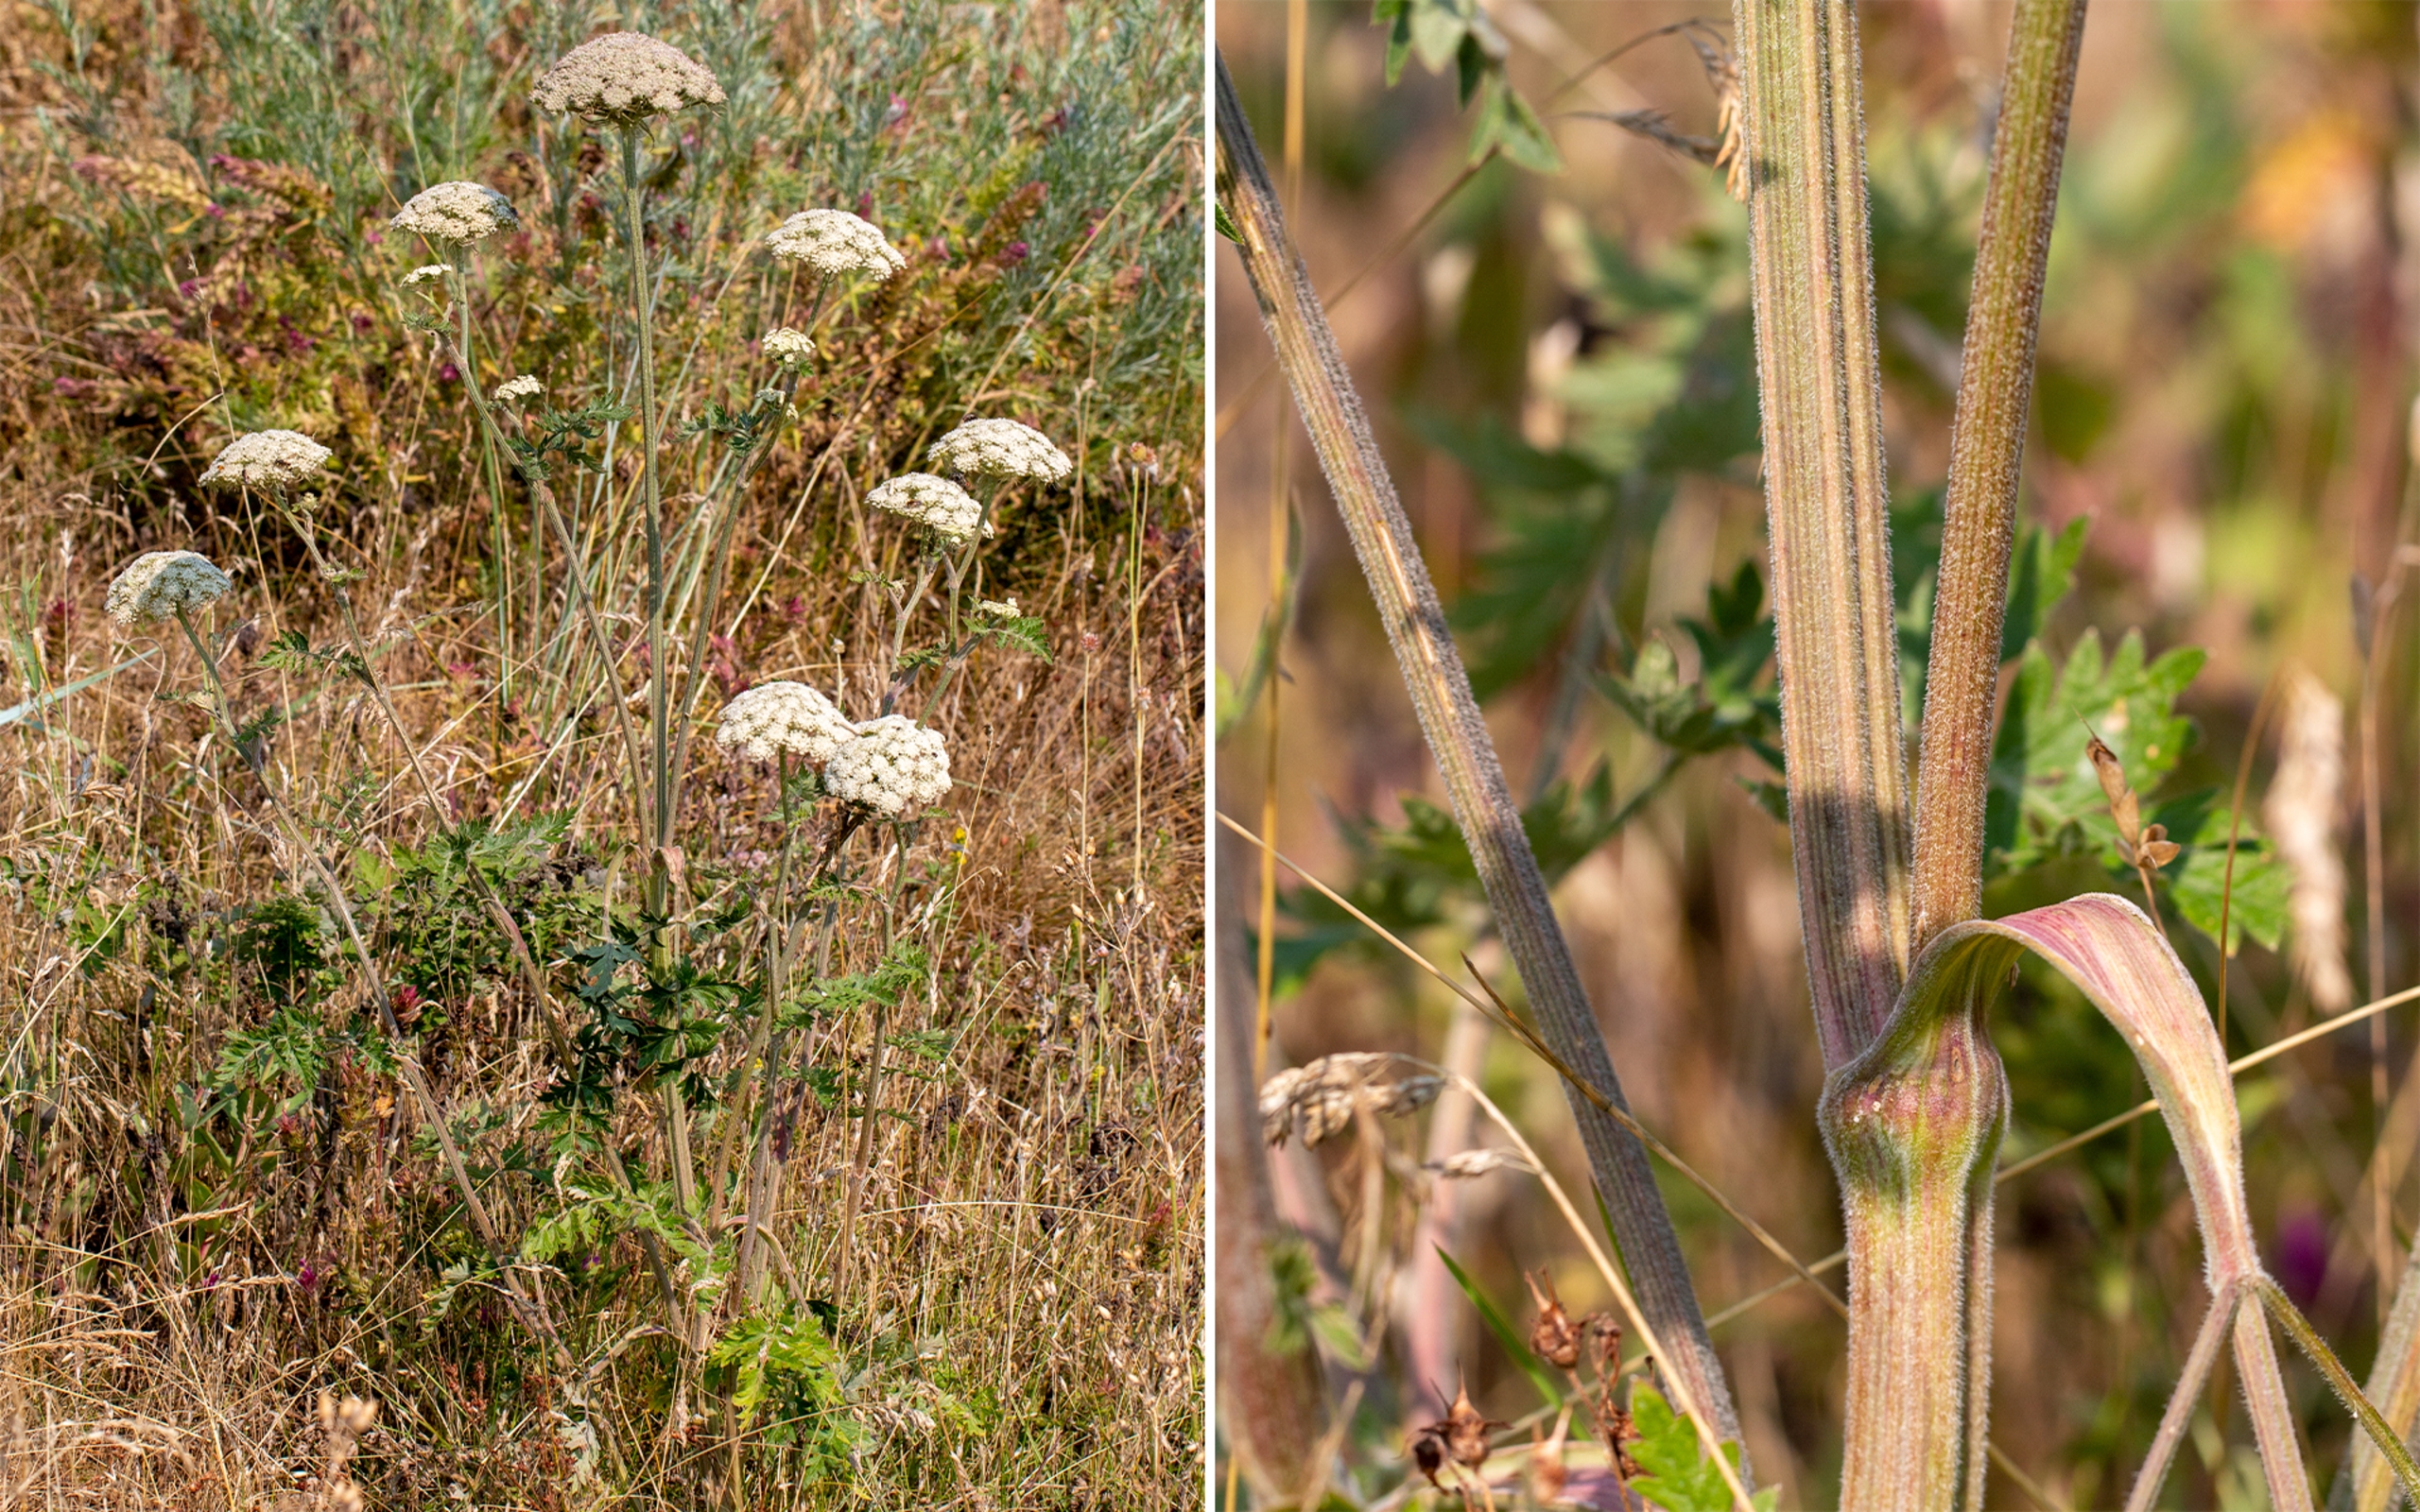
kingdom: Plantae
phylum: Tracheophyta
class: Magnoliopsida
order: Apiales
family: Apiaceae
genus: Seseli
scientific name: Seseli libanotis
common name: Hjorterod
